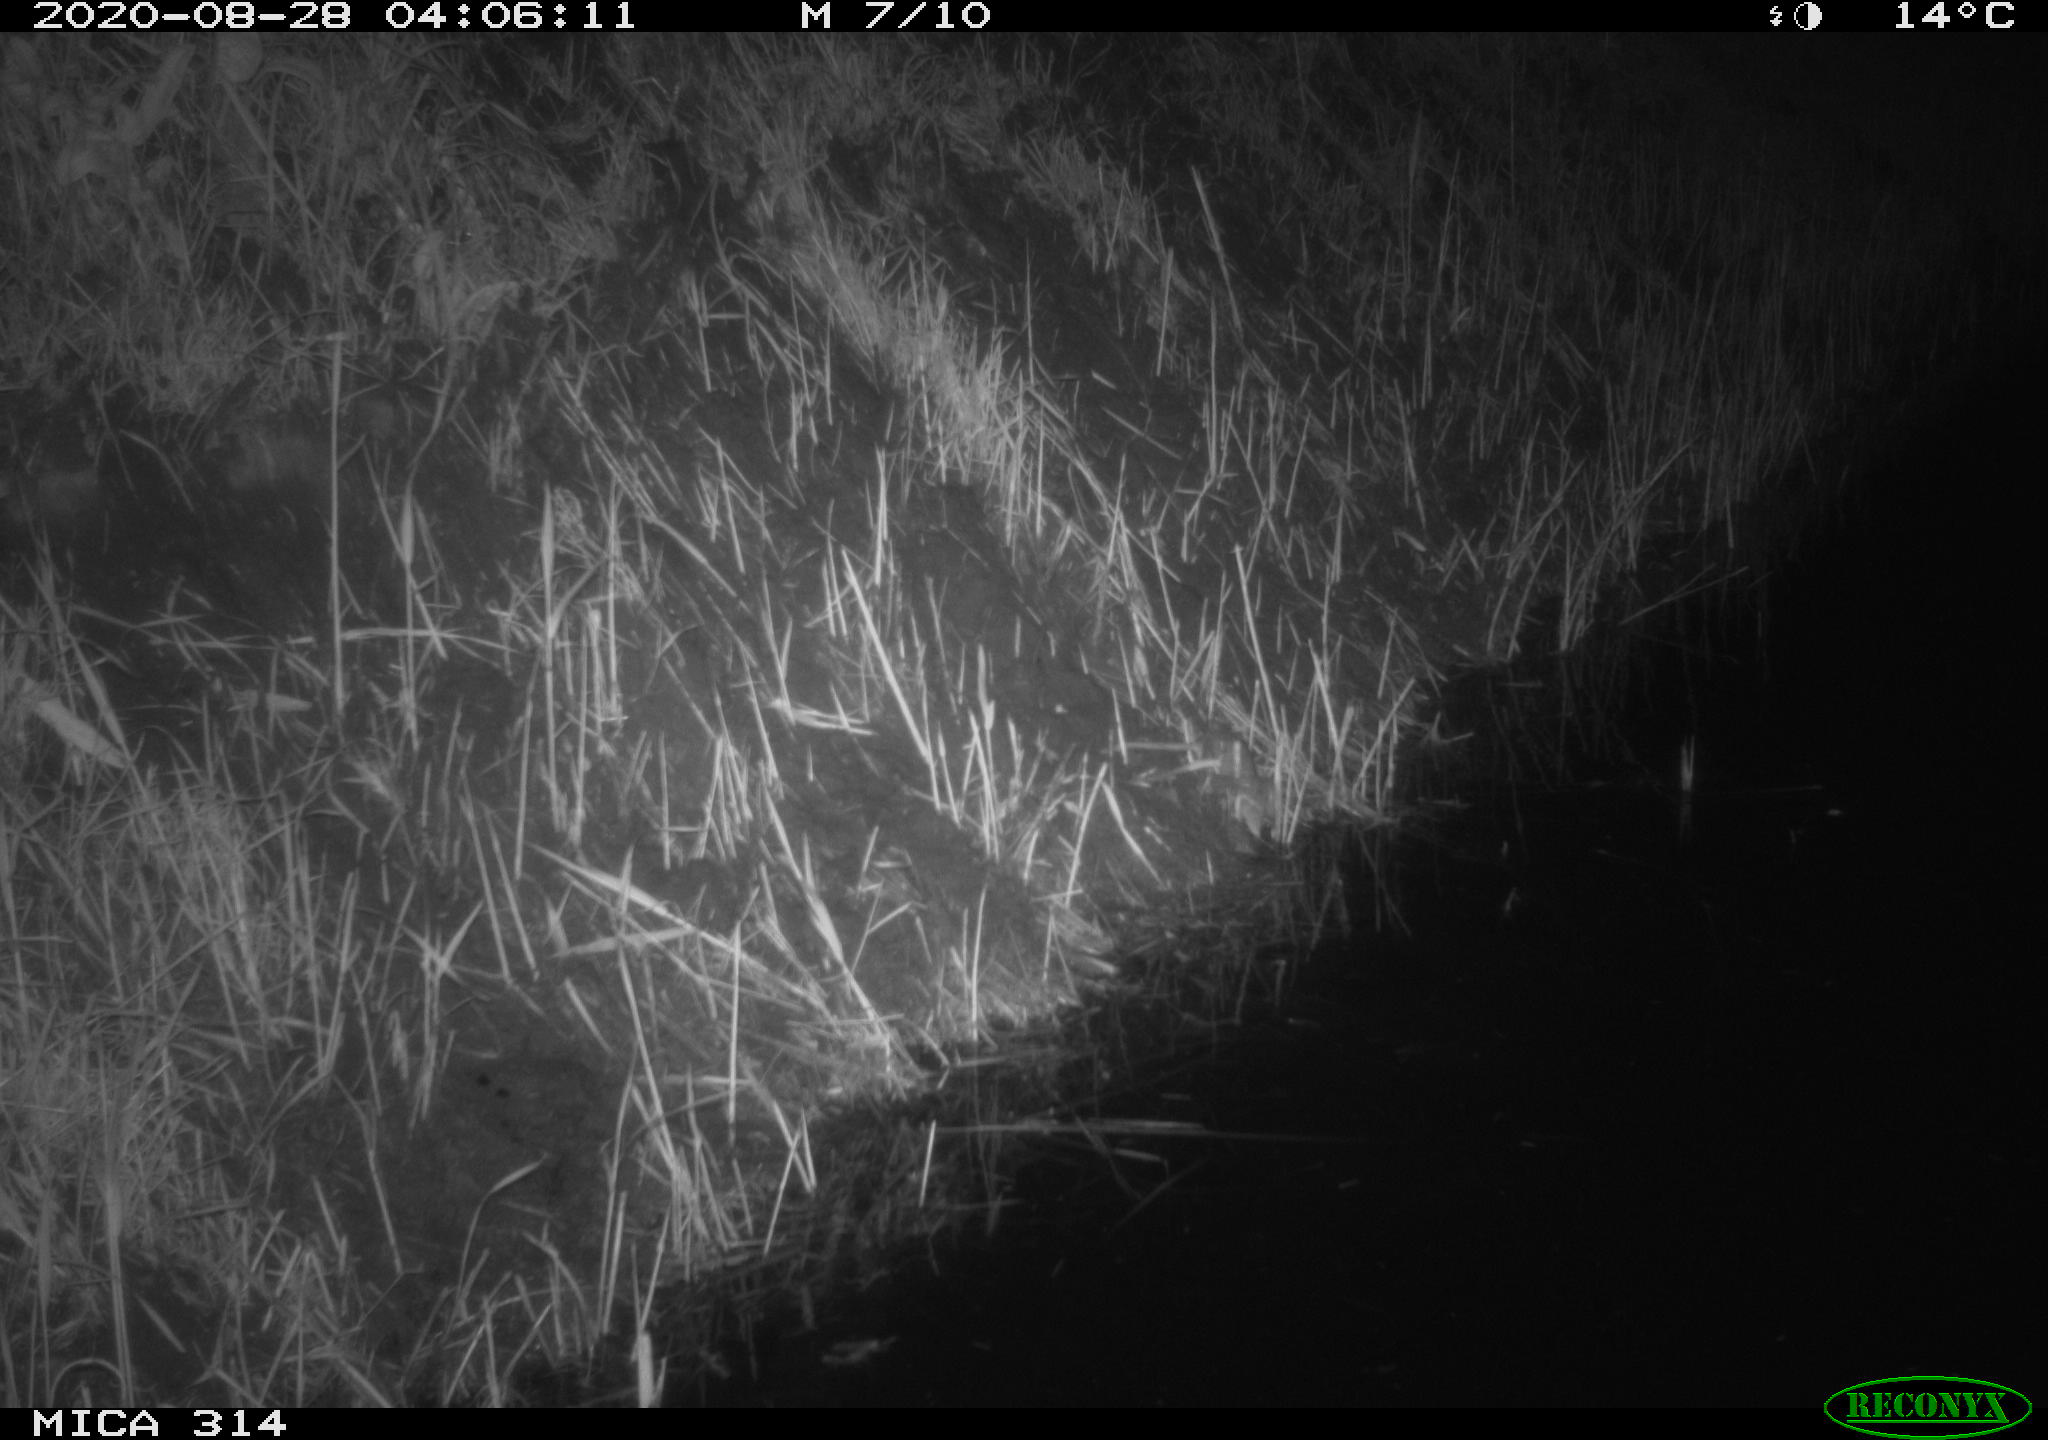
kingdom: Animalia
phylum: Chordata
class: Mammalia
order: Rodentia
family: Muridae
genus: Rattus
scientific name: Rattus norvegicus
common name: Brown rat
